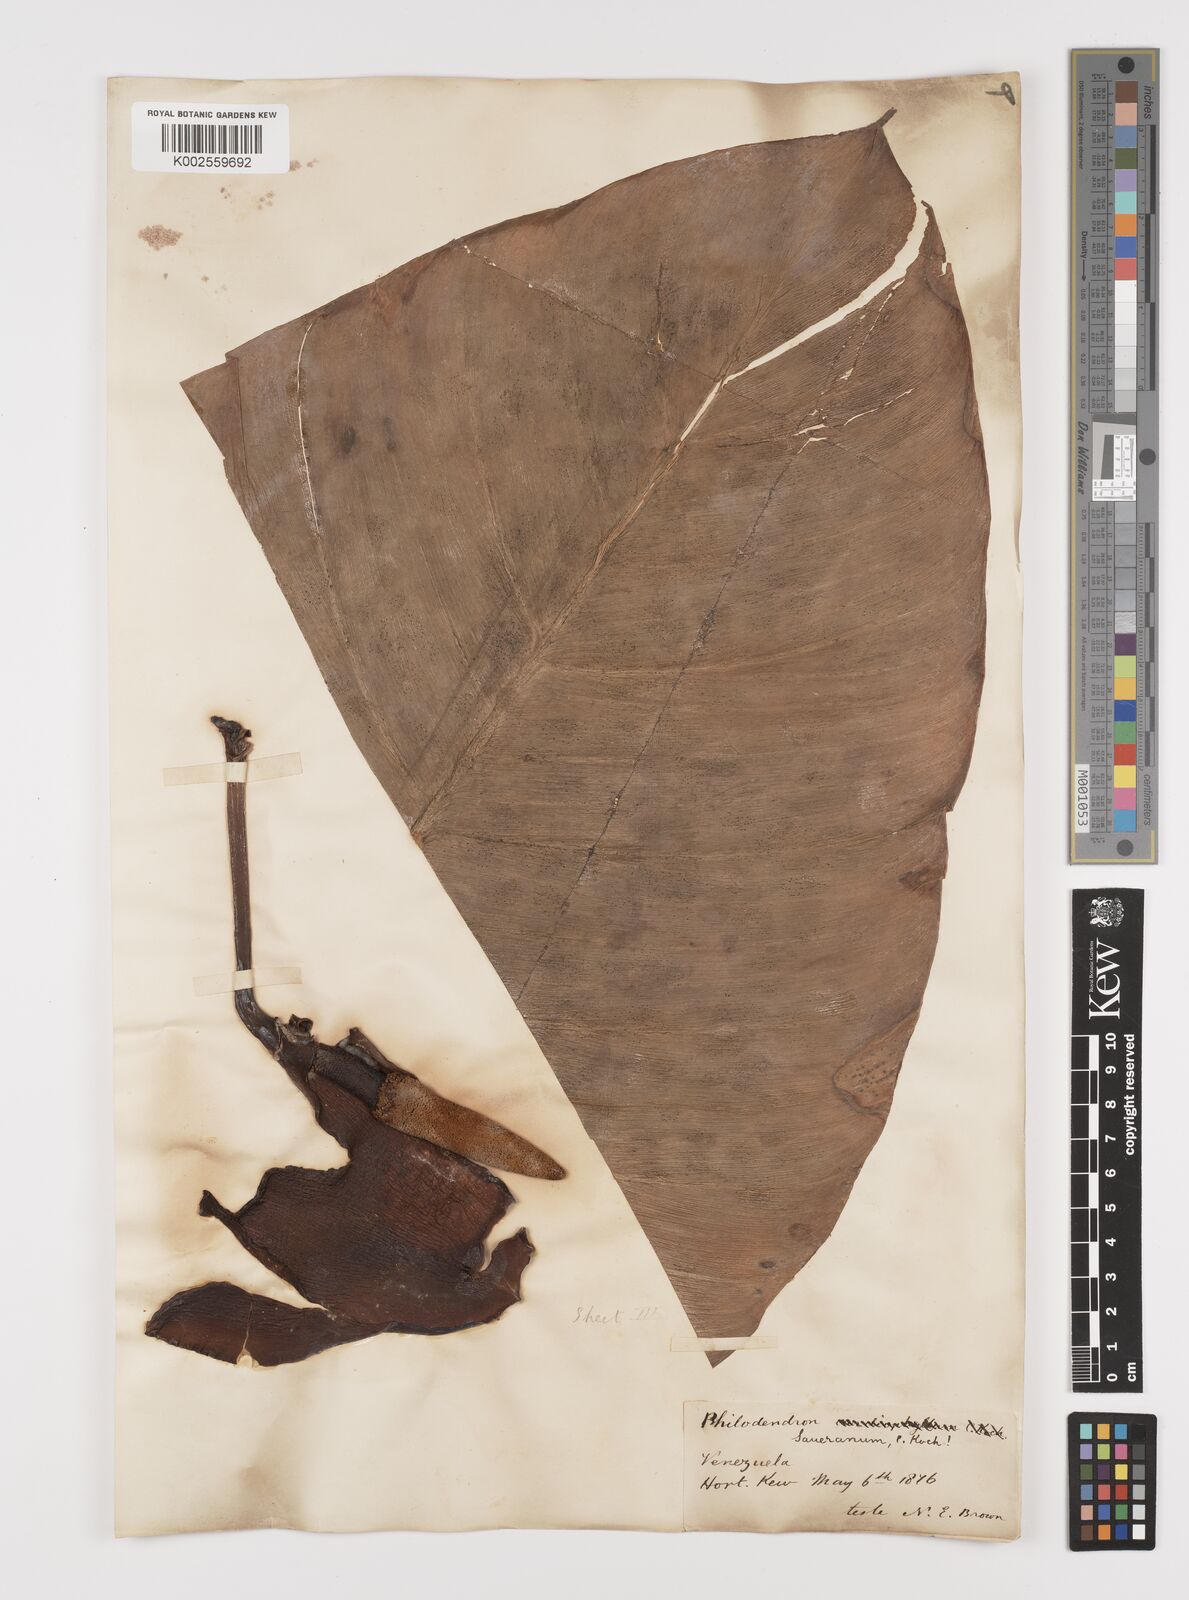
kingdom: Plantae
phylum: Tracheophyta
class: Liliopsida
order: Alismatales
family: Araceae
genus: Philodendron
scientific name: Philodendron eximium
